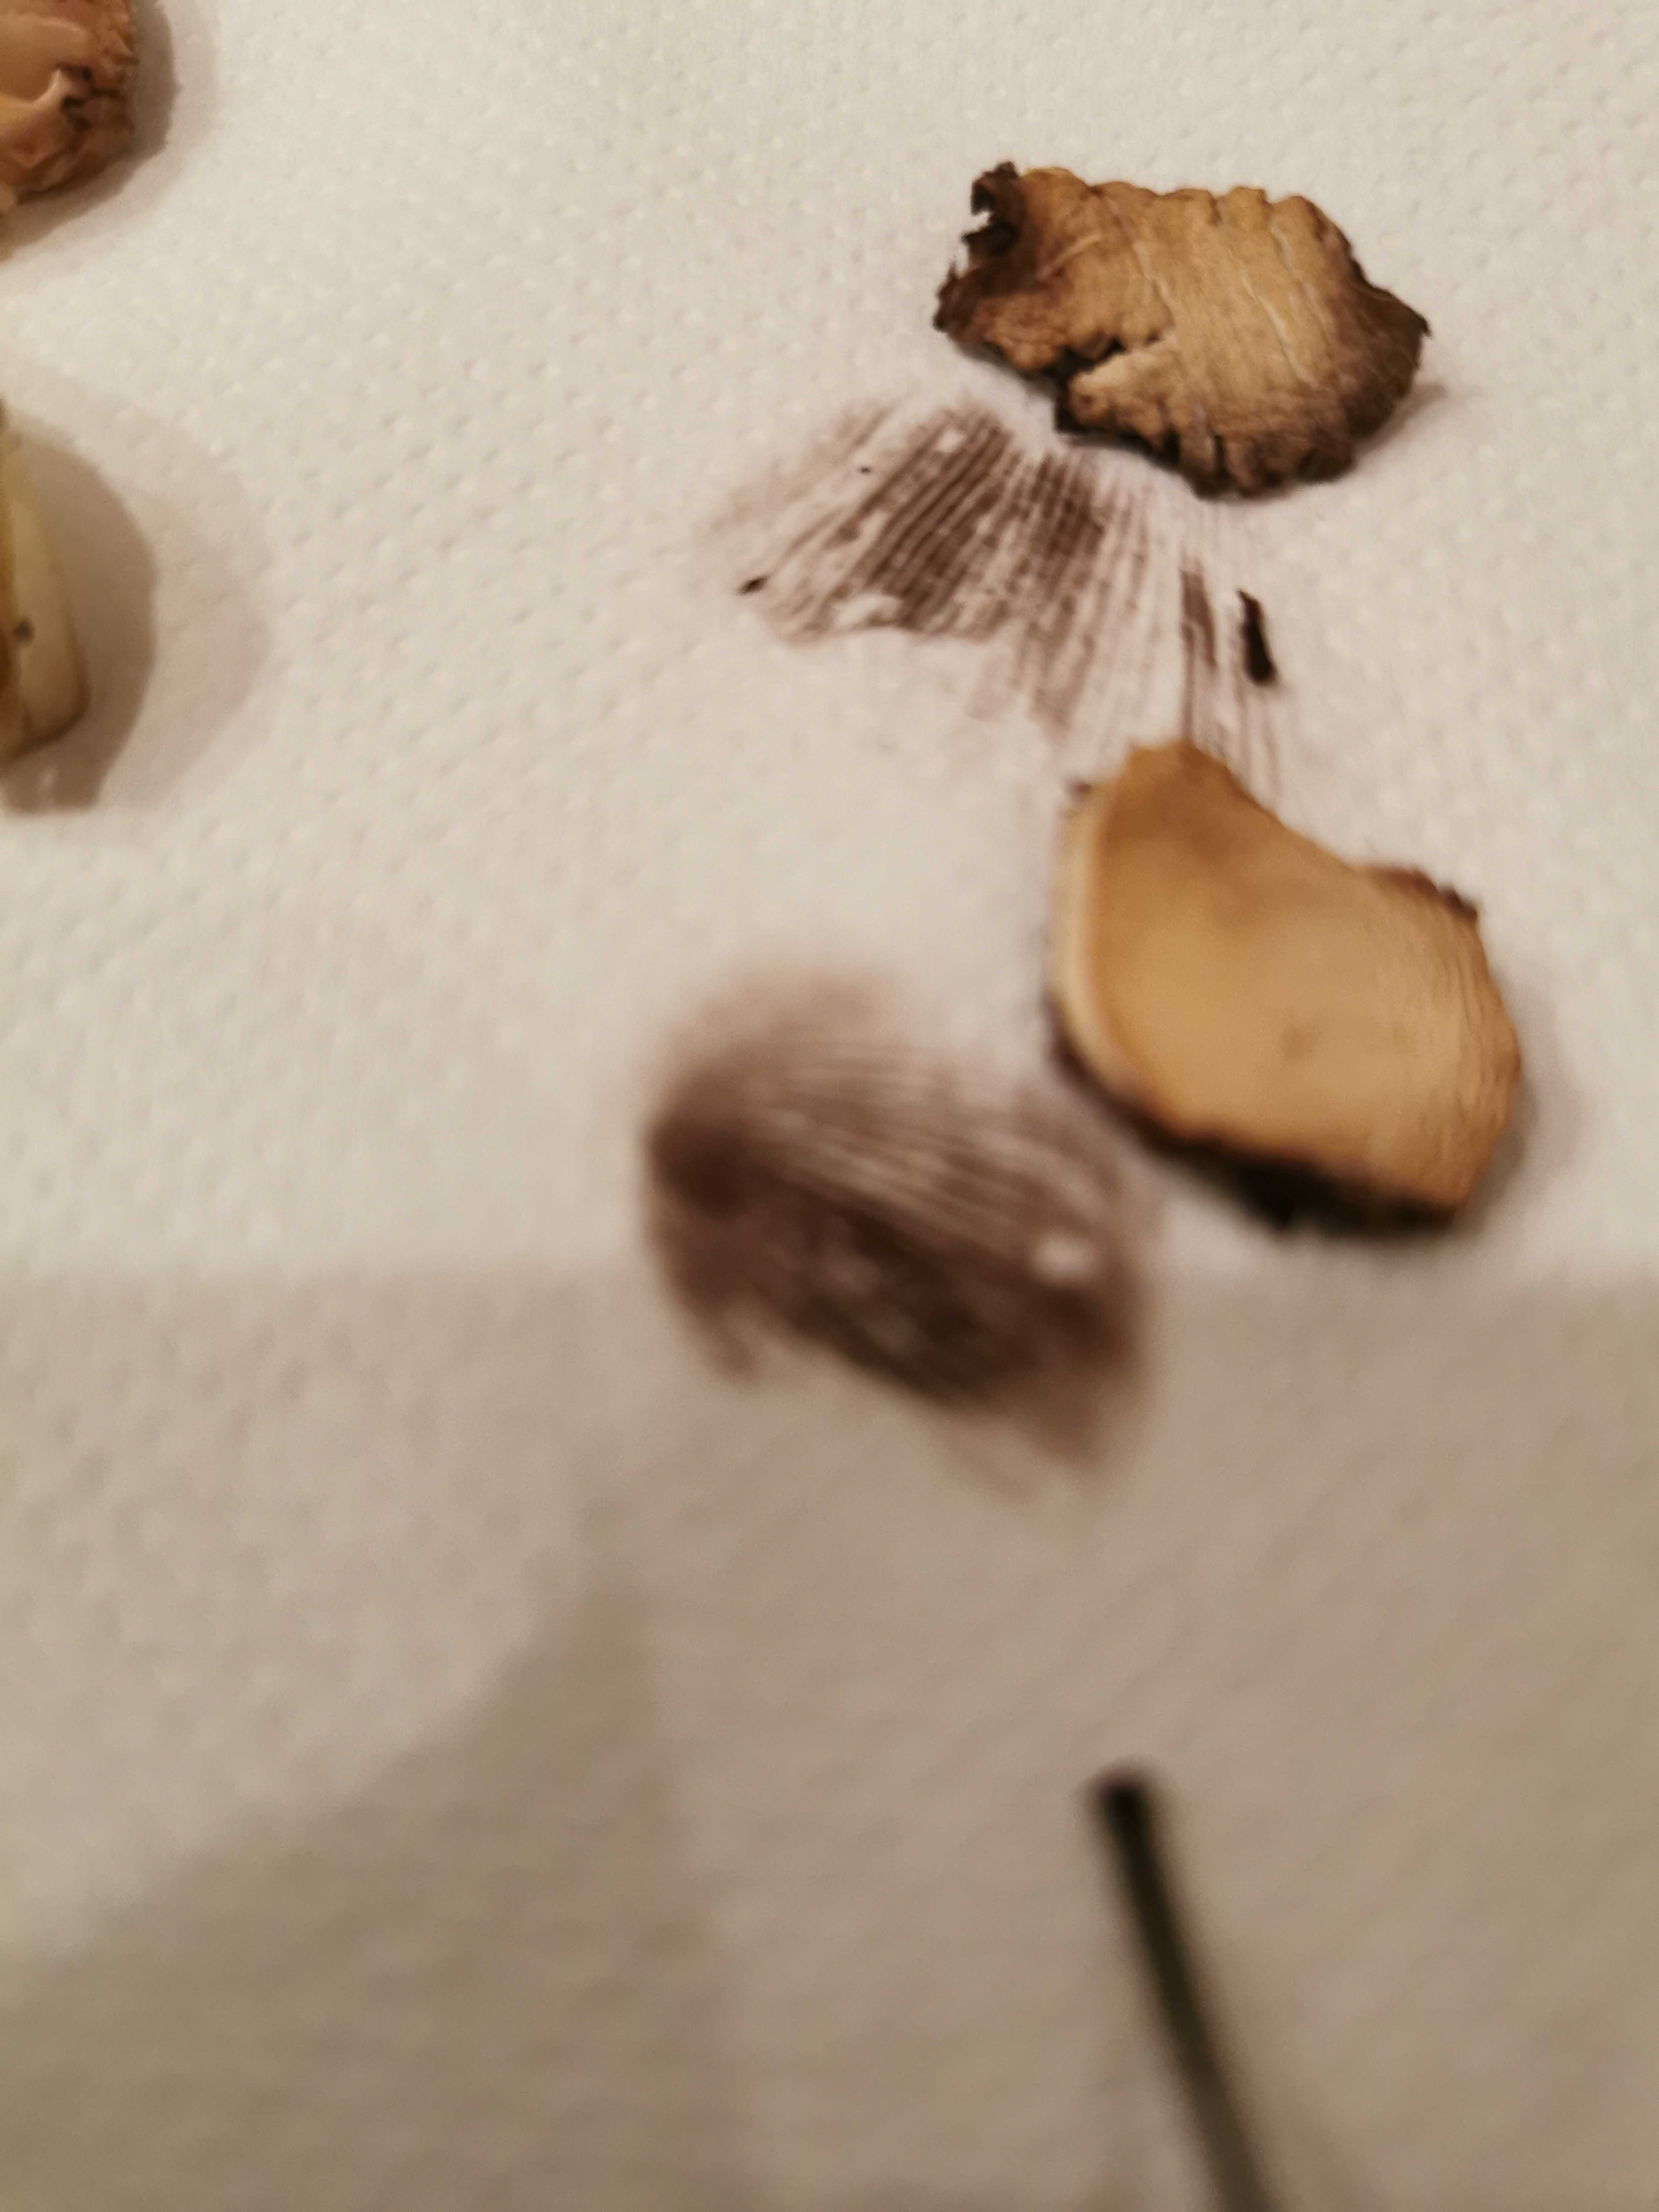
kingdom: Fungi
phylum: Basidiomycota
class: Agaricomycetes
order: Agaricales
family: Psathyrellaceae
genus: Psathyrella
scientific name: Psathyrella
